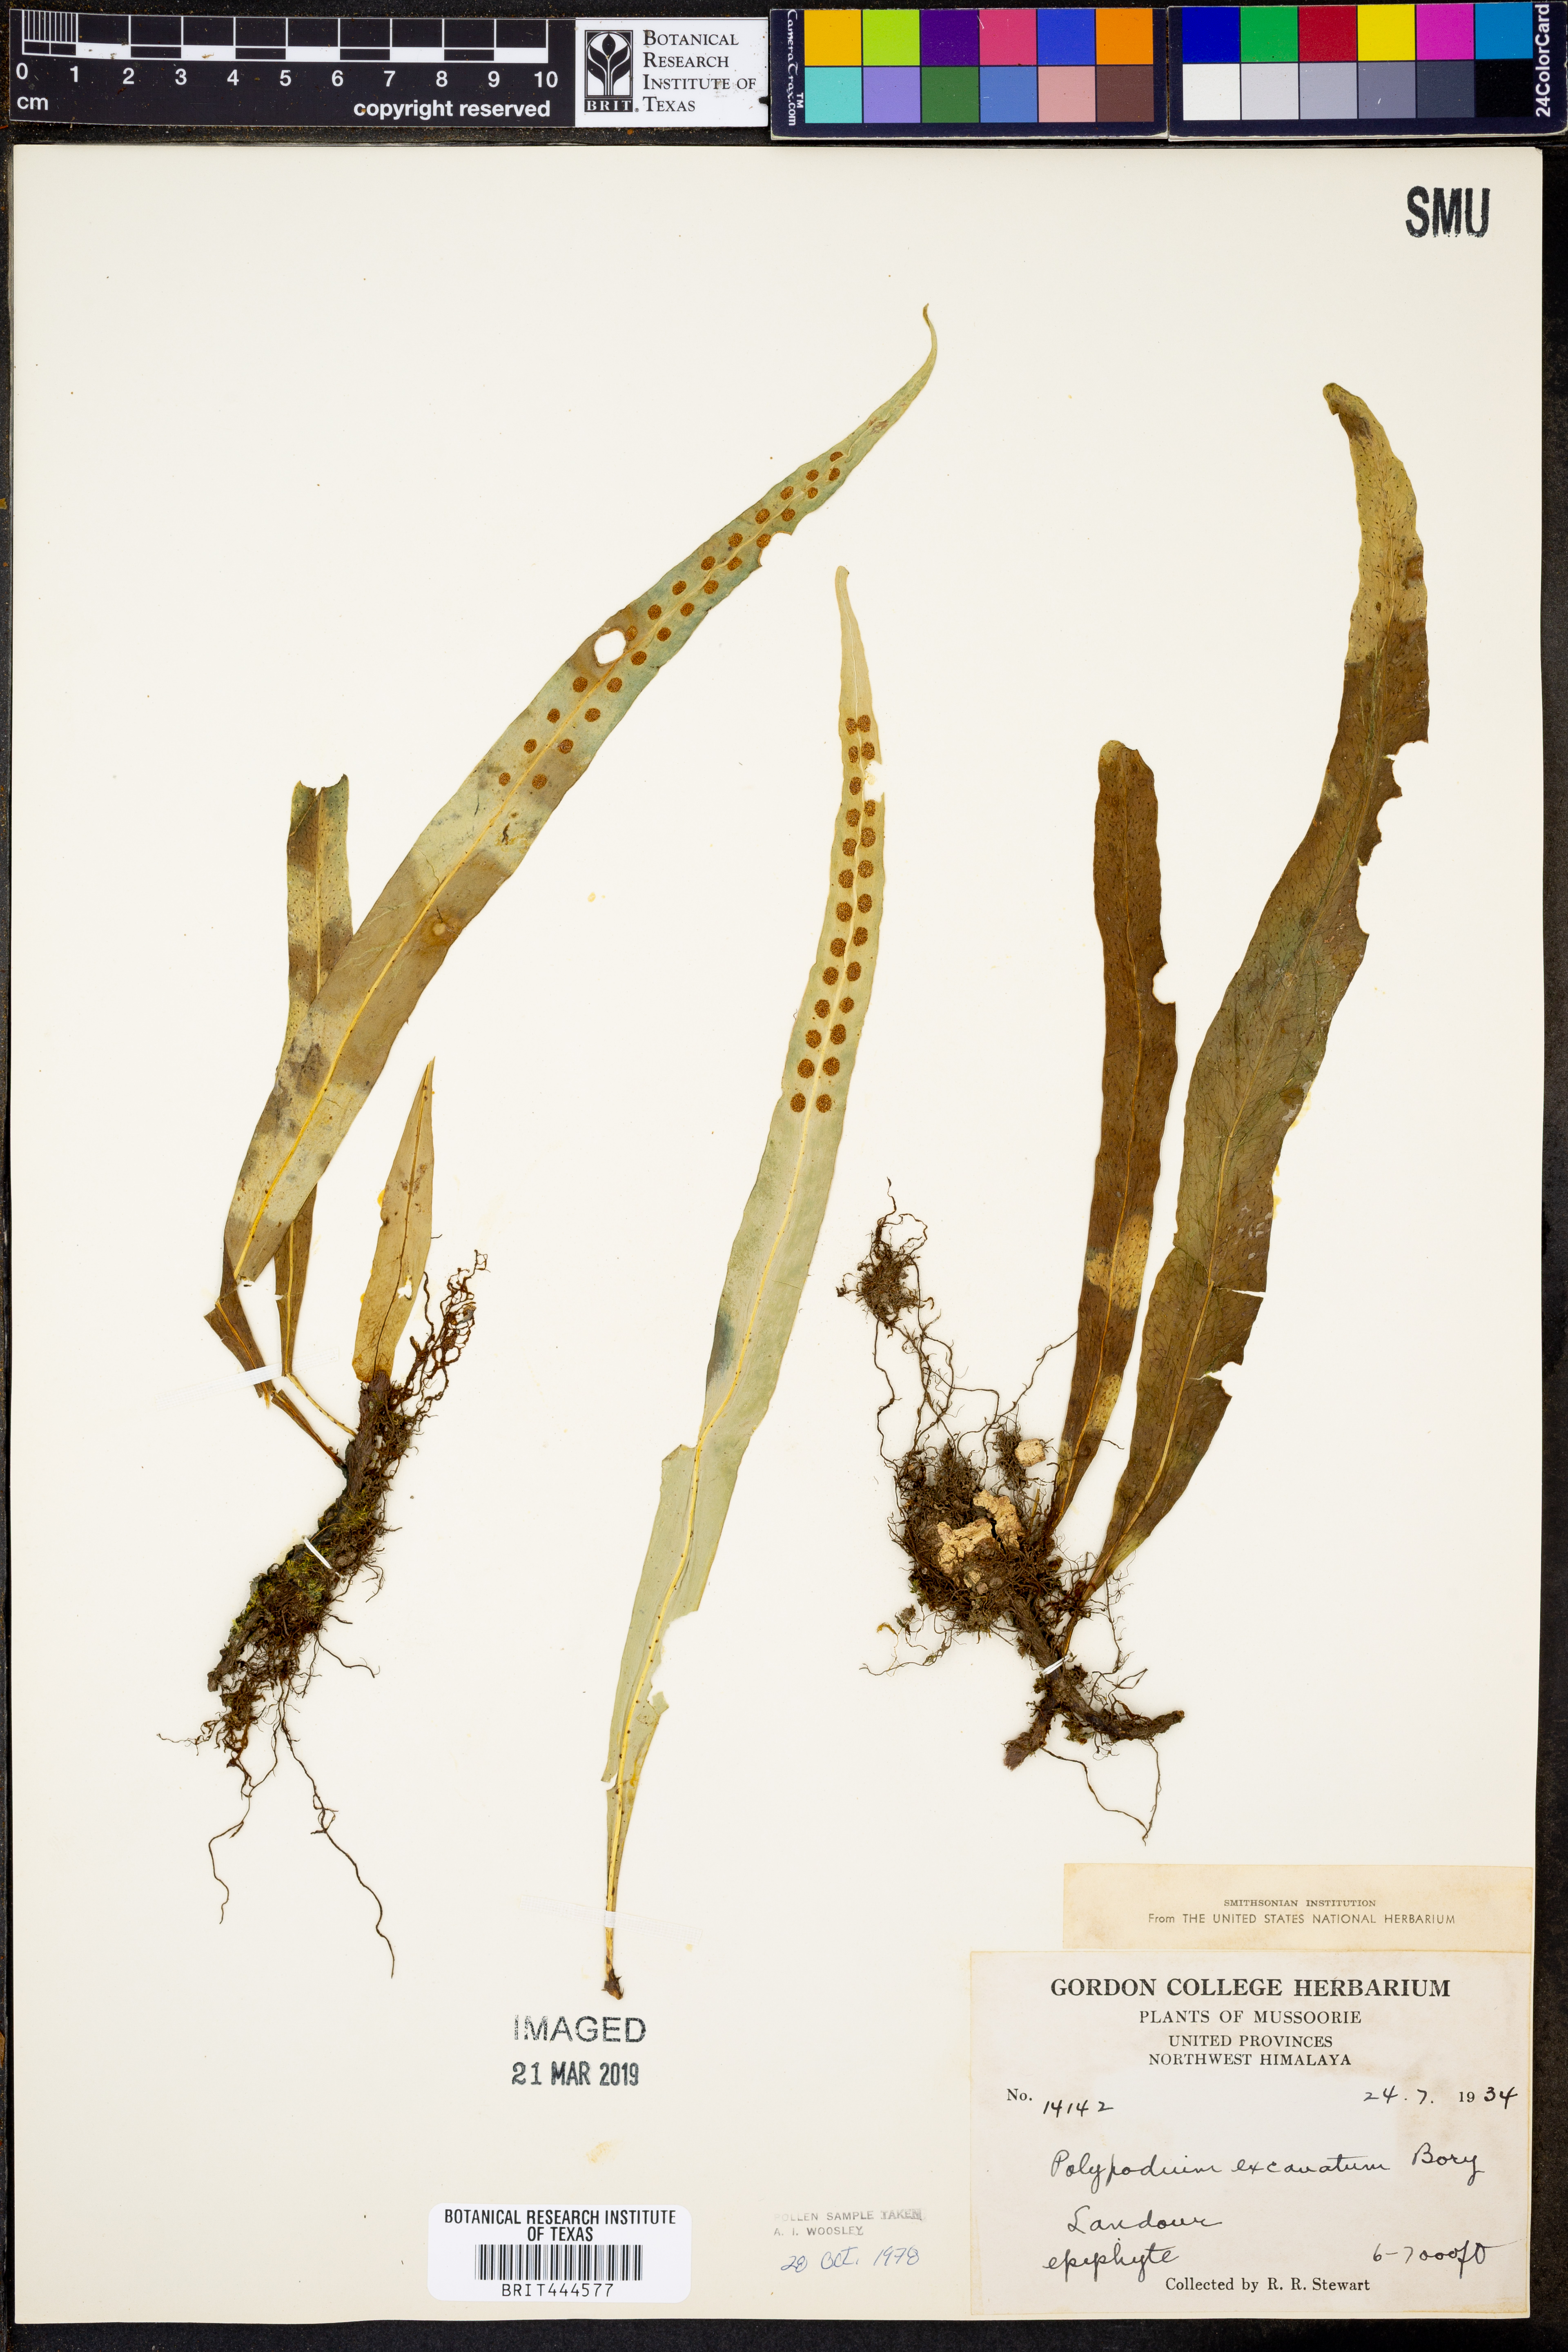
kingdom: Plantae
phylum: Tracheophyta
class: Polypodiopsida
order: Polypodiales
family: Polypodiaceae
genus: Lepisorus
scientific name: Lepisorus excavatus
